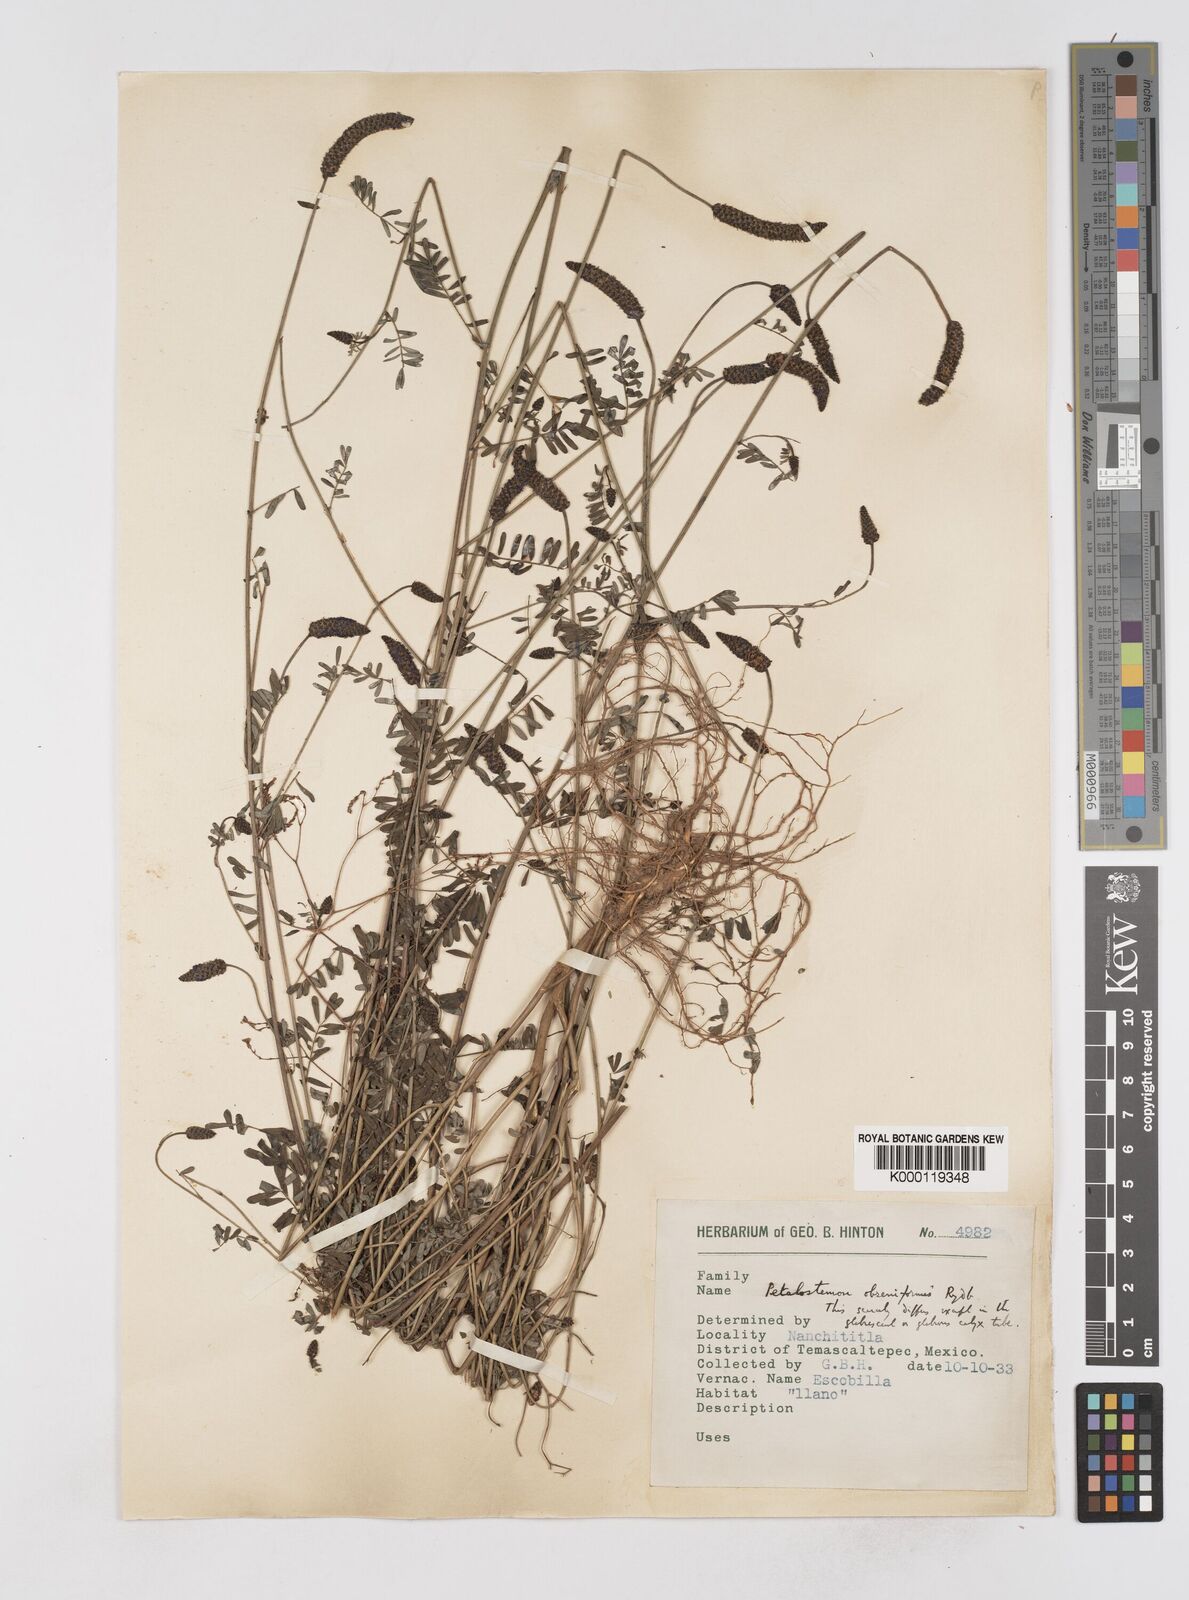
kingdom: Plantae
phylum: Tracheophyta
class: Magnoliopsida
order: Fabales
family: Fabaceae
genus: Dalea
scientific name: Dalea obreniformis
